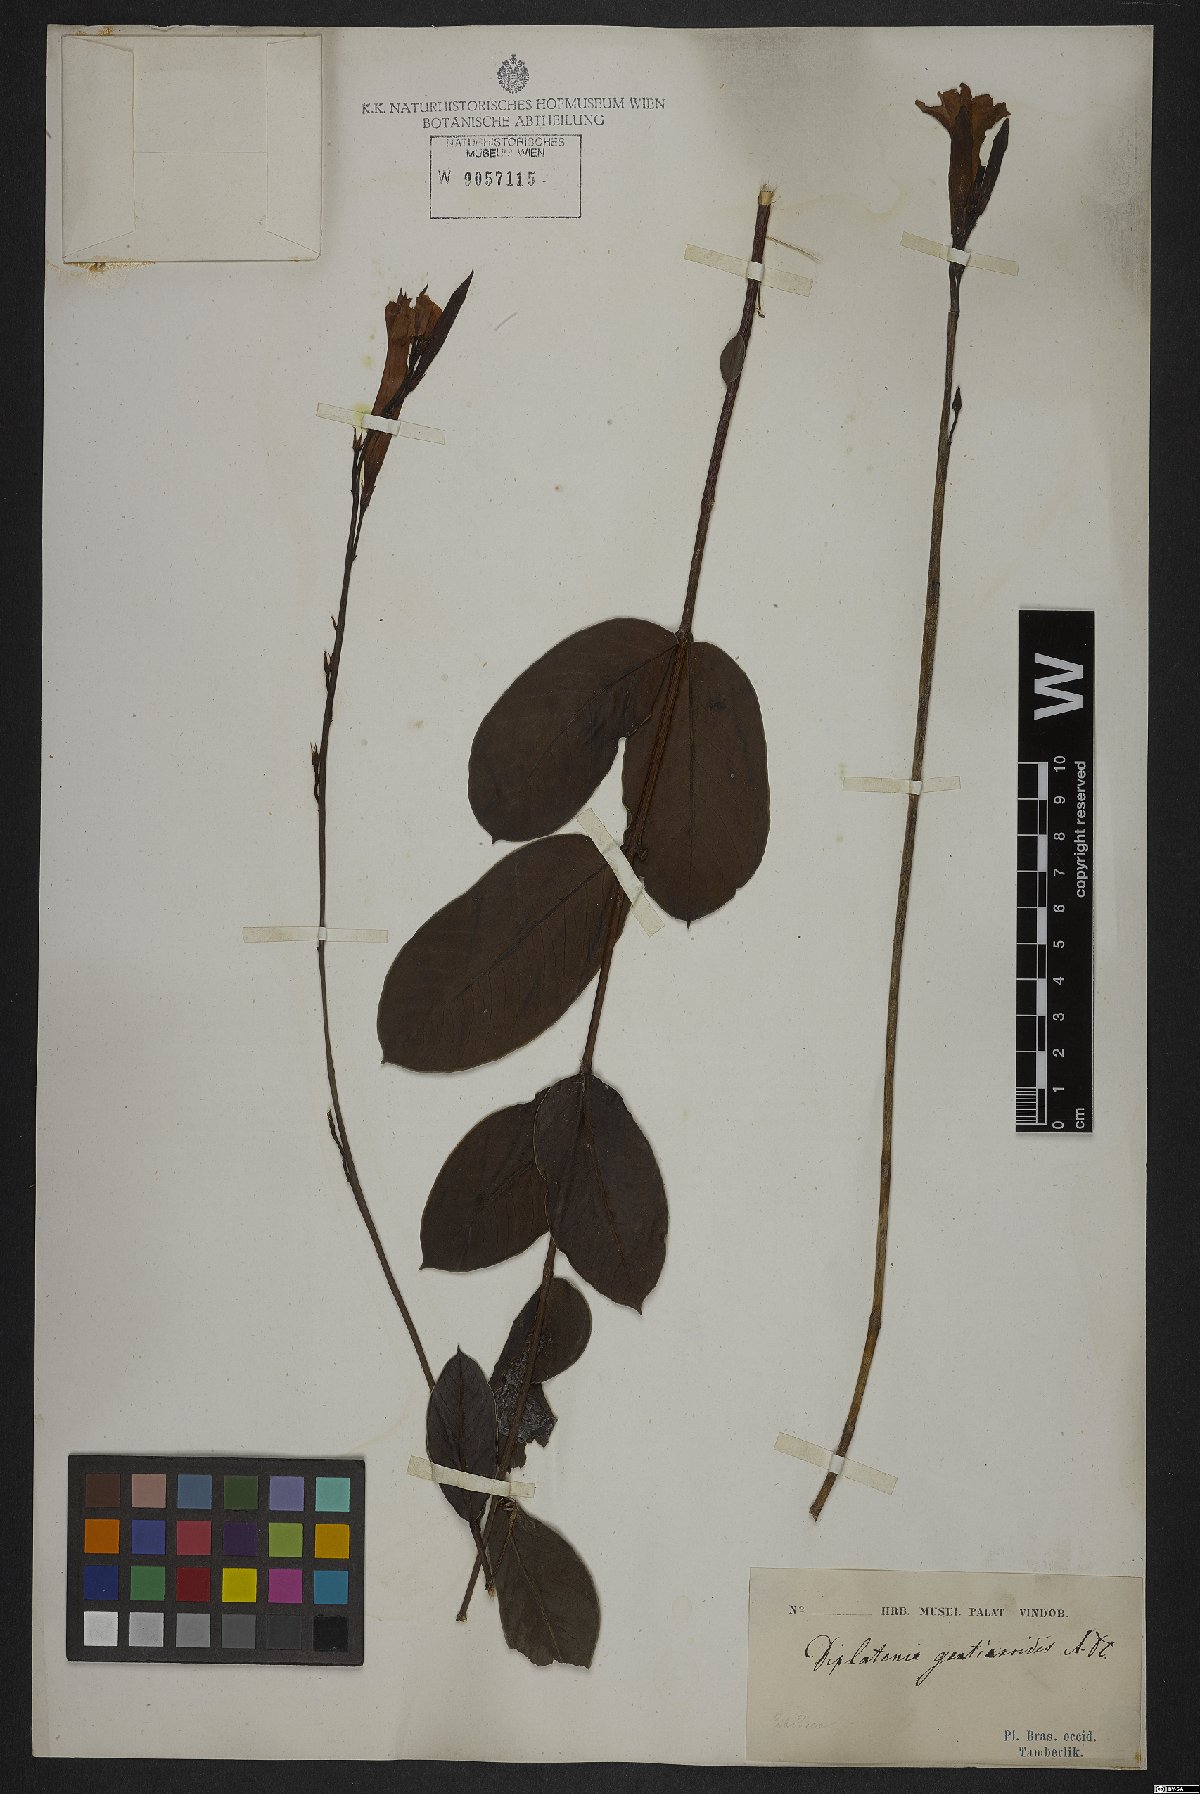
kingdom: Plantae
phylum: Tracheophyta
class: Magnoliopsida
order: Gentianales
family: Apocynaceae
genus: Mandevilla
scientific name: Mandevilla pohliana
